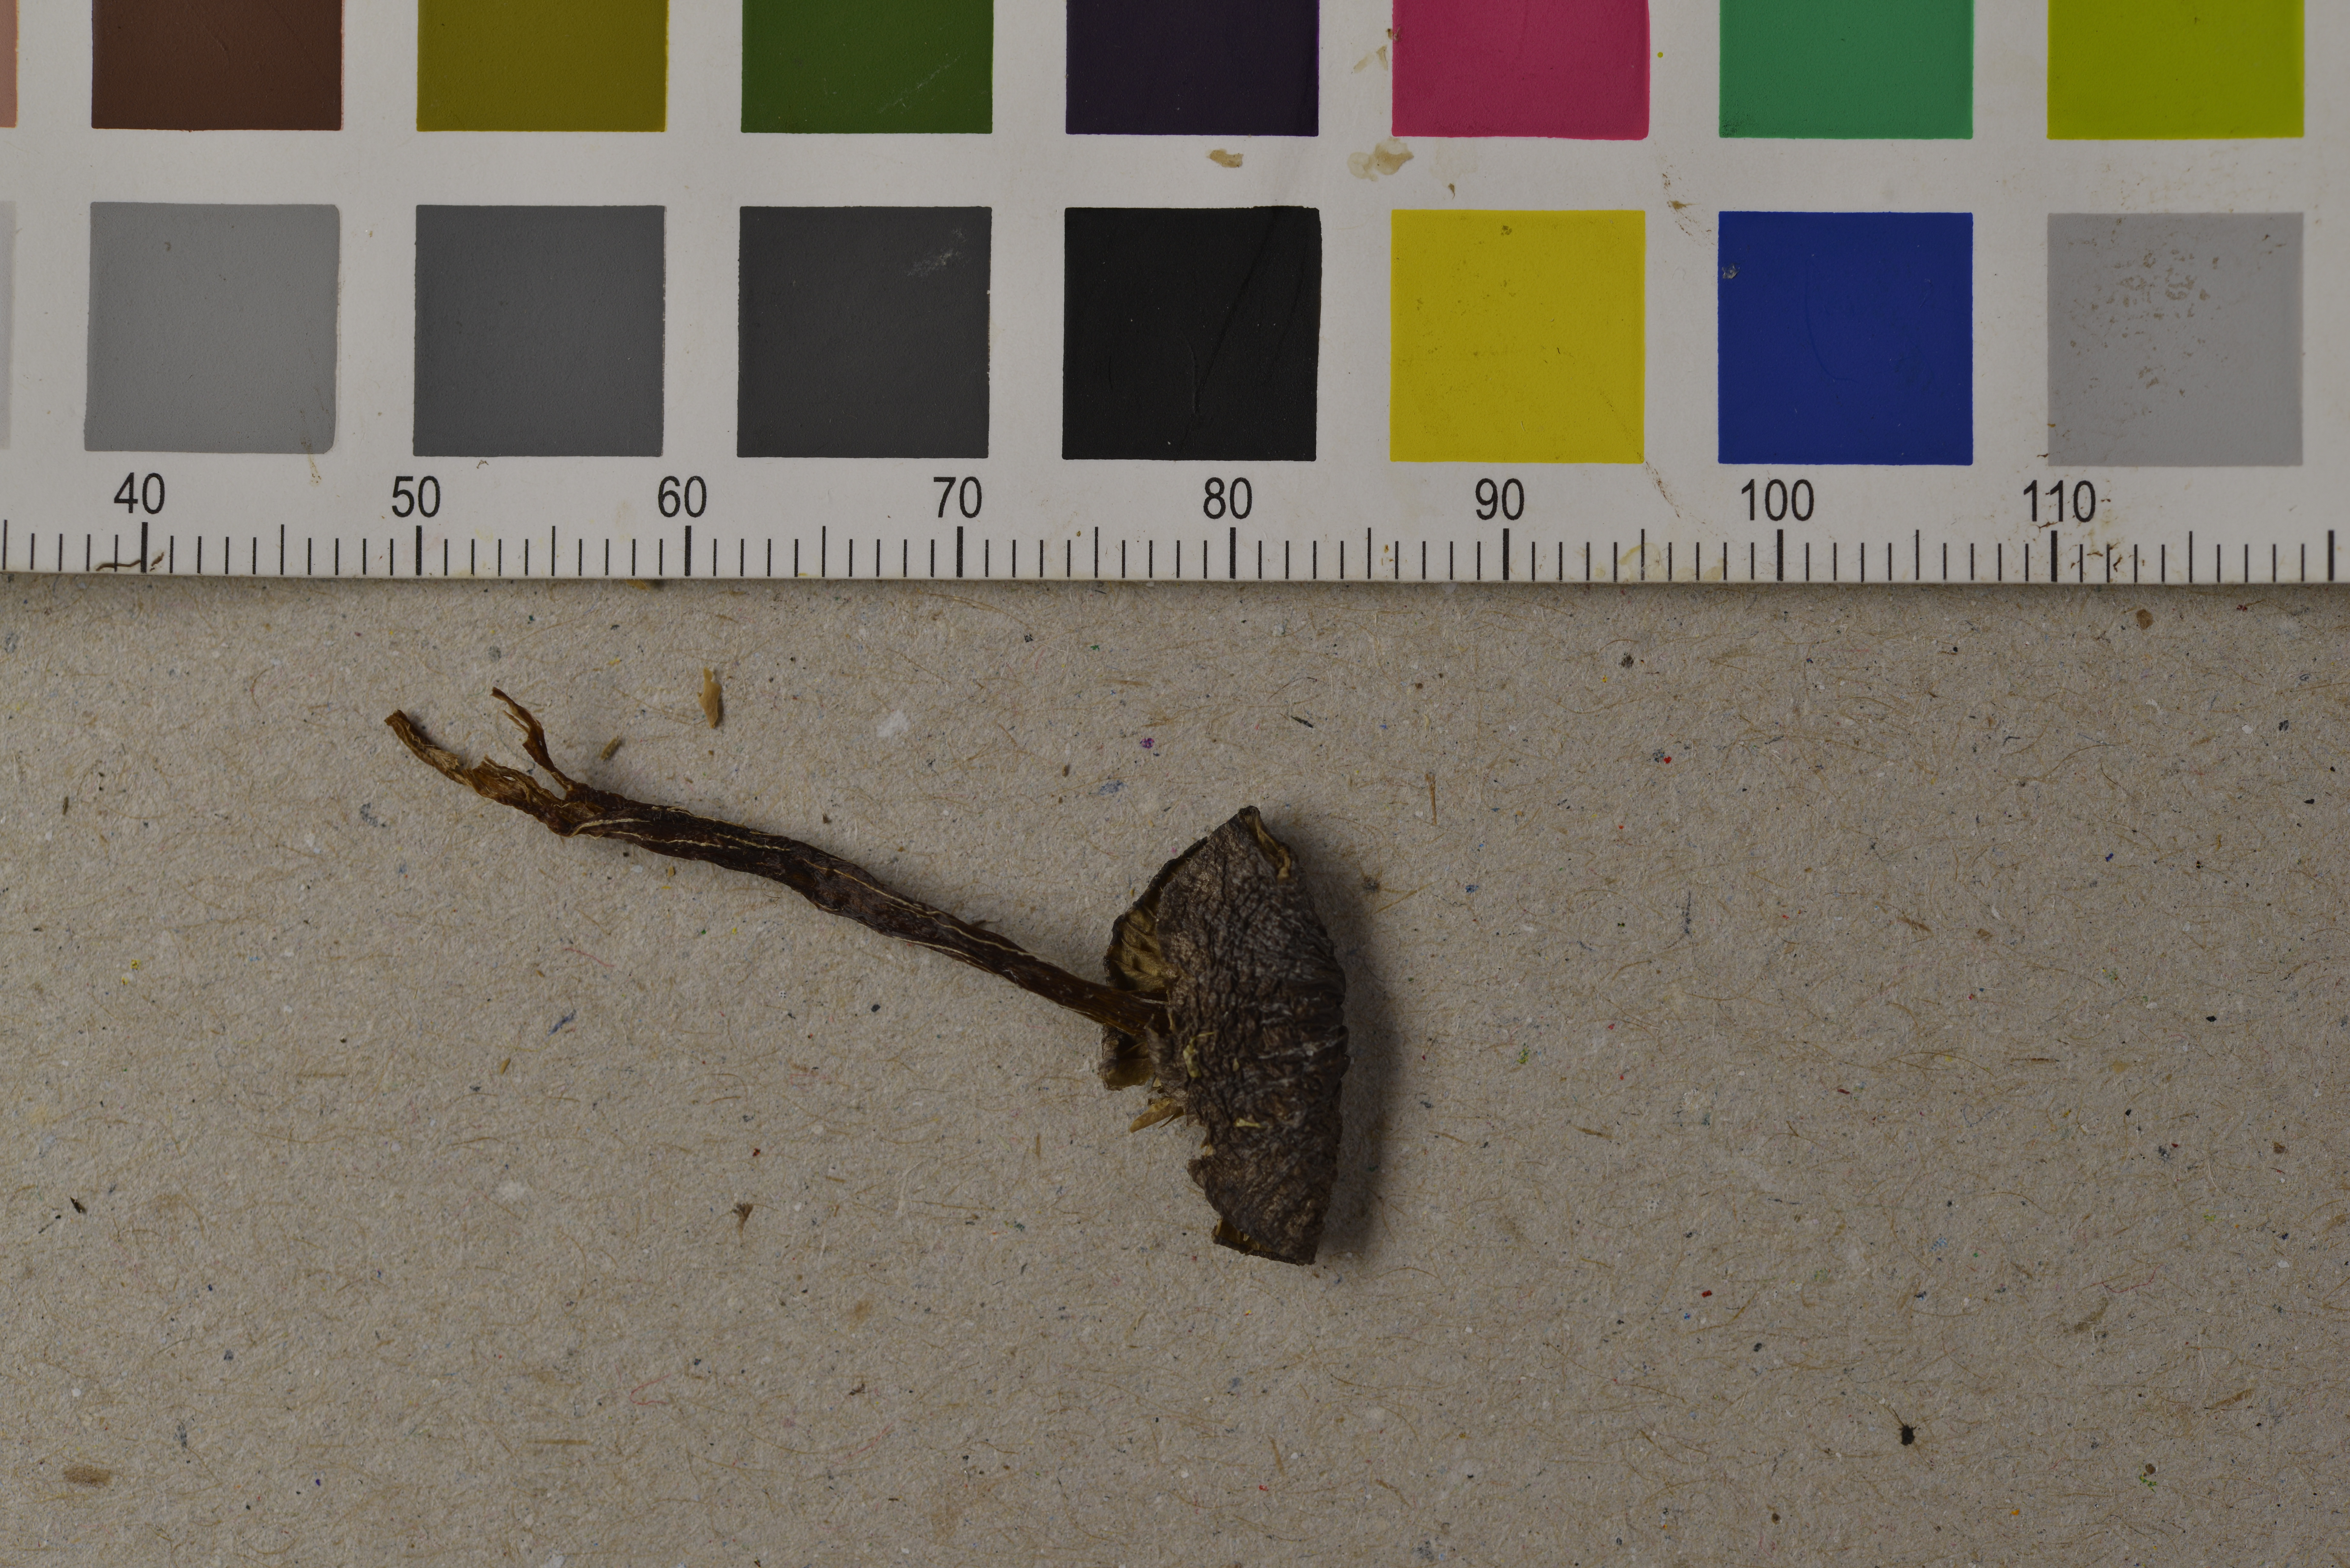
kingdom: Fungi
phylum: Basidiomycota
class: Agaricomycetes
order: Agaricales
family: Entolomataceae
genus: Entoloma
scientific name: Entoloma undulatosporum
